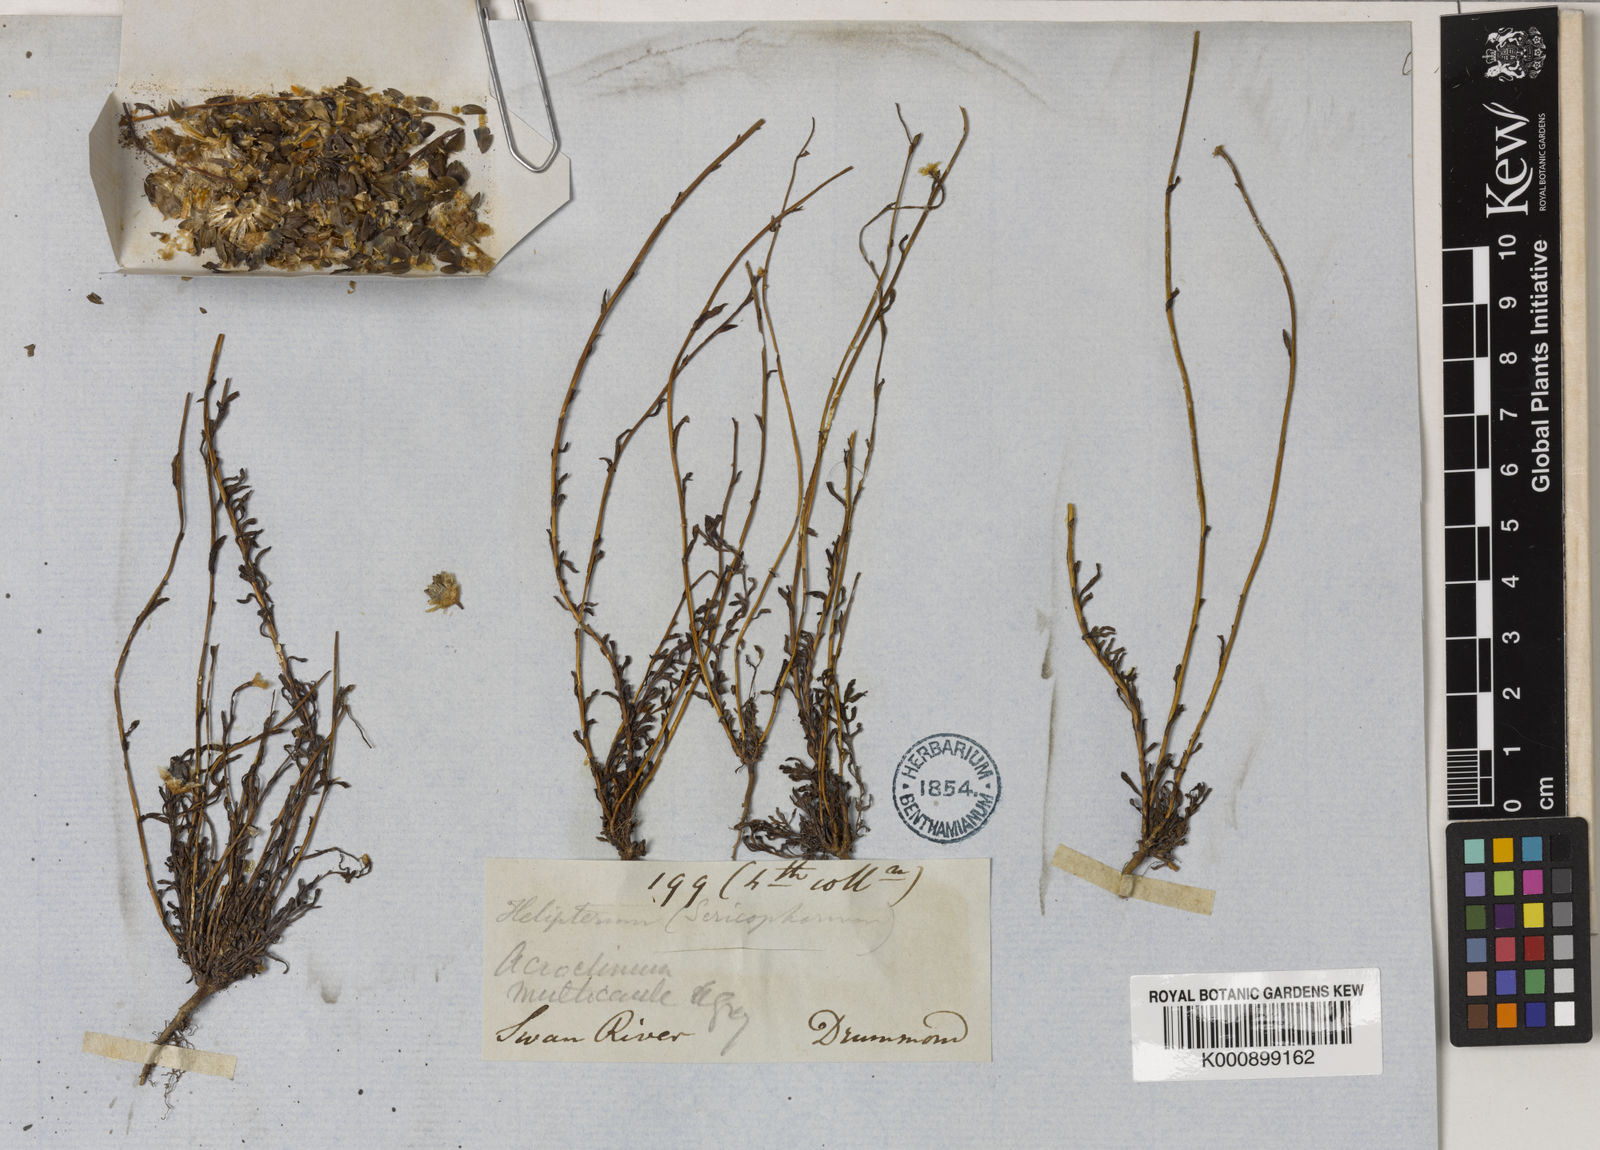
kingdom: Plantae
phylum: Tracheophyta
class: Magnoliopsida
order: Asterales
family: Asteraceae
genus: Rhodanthe
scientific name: Rhodanthe chlorocephala
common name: Rosy sunray
